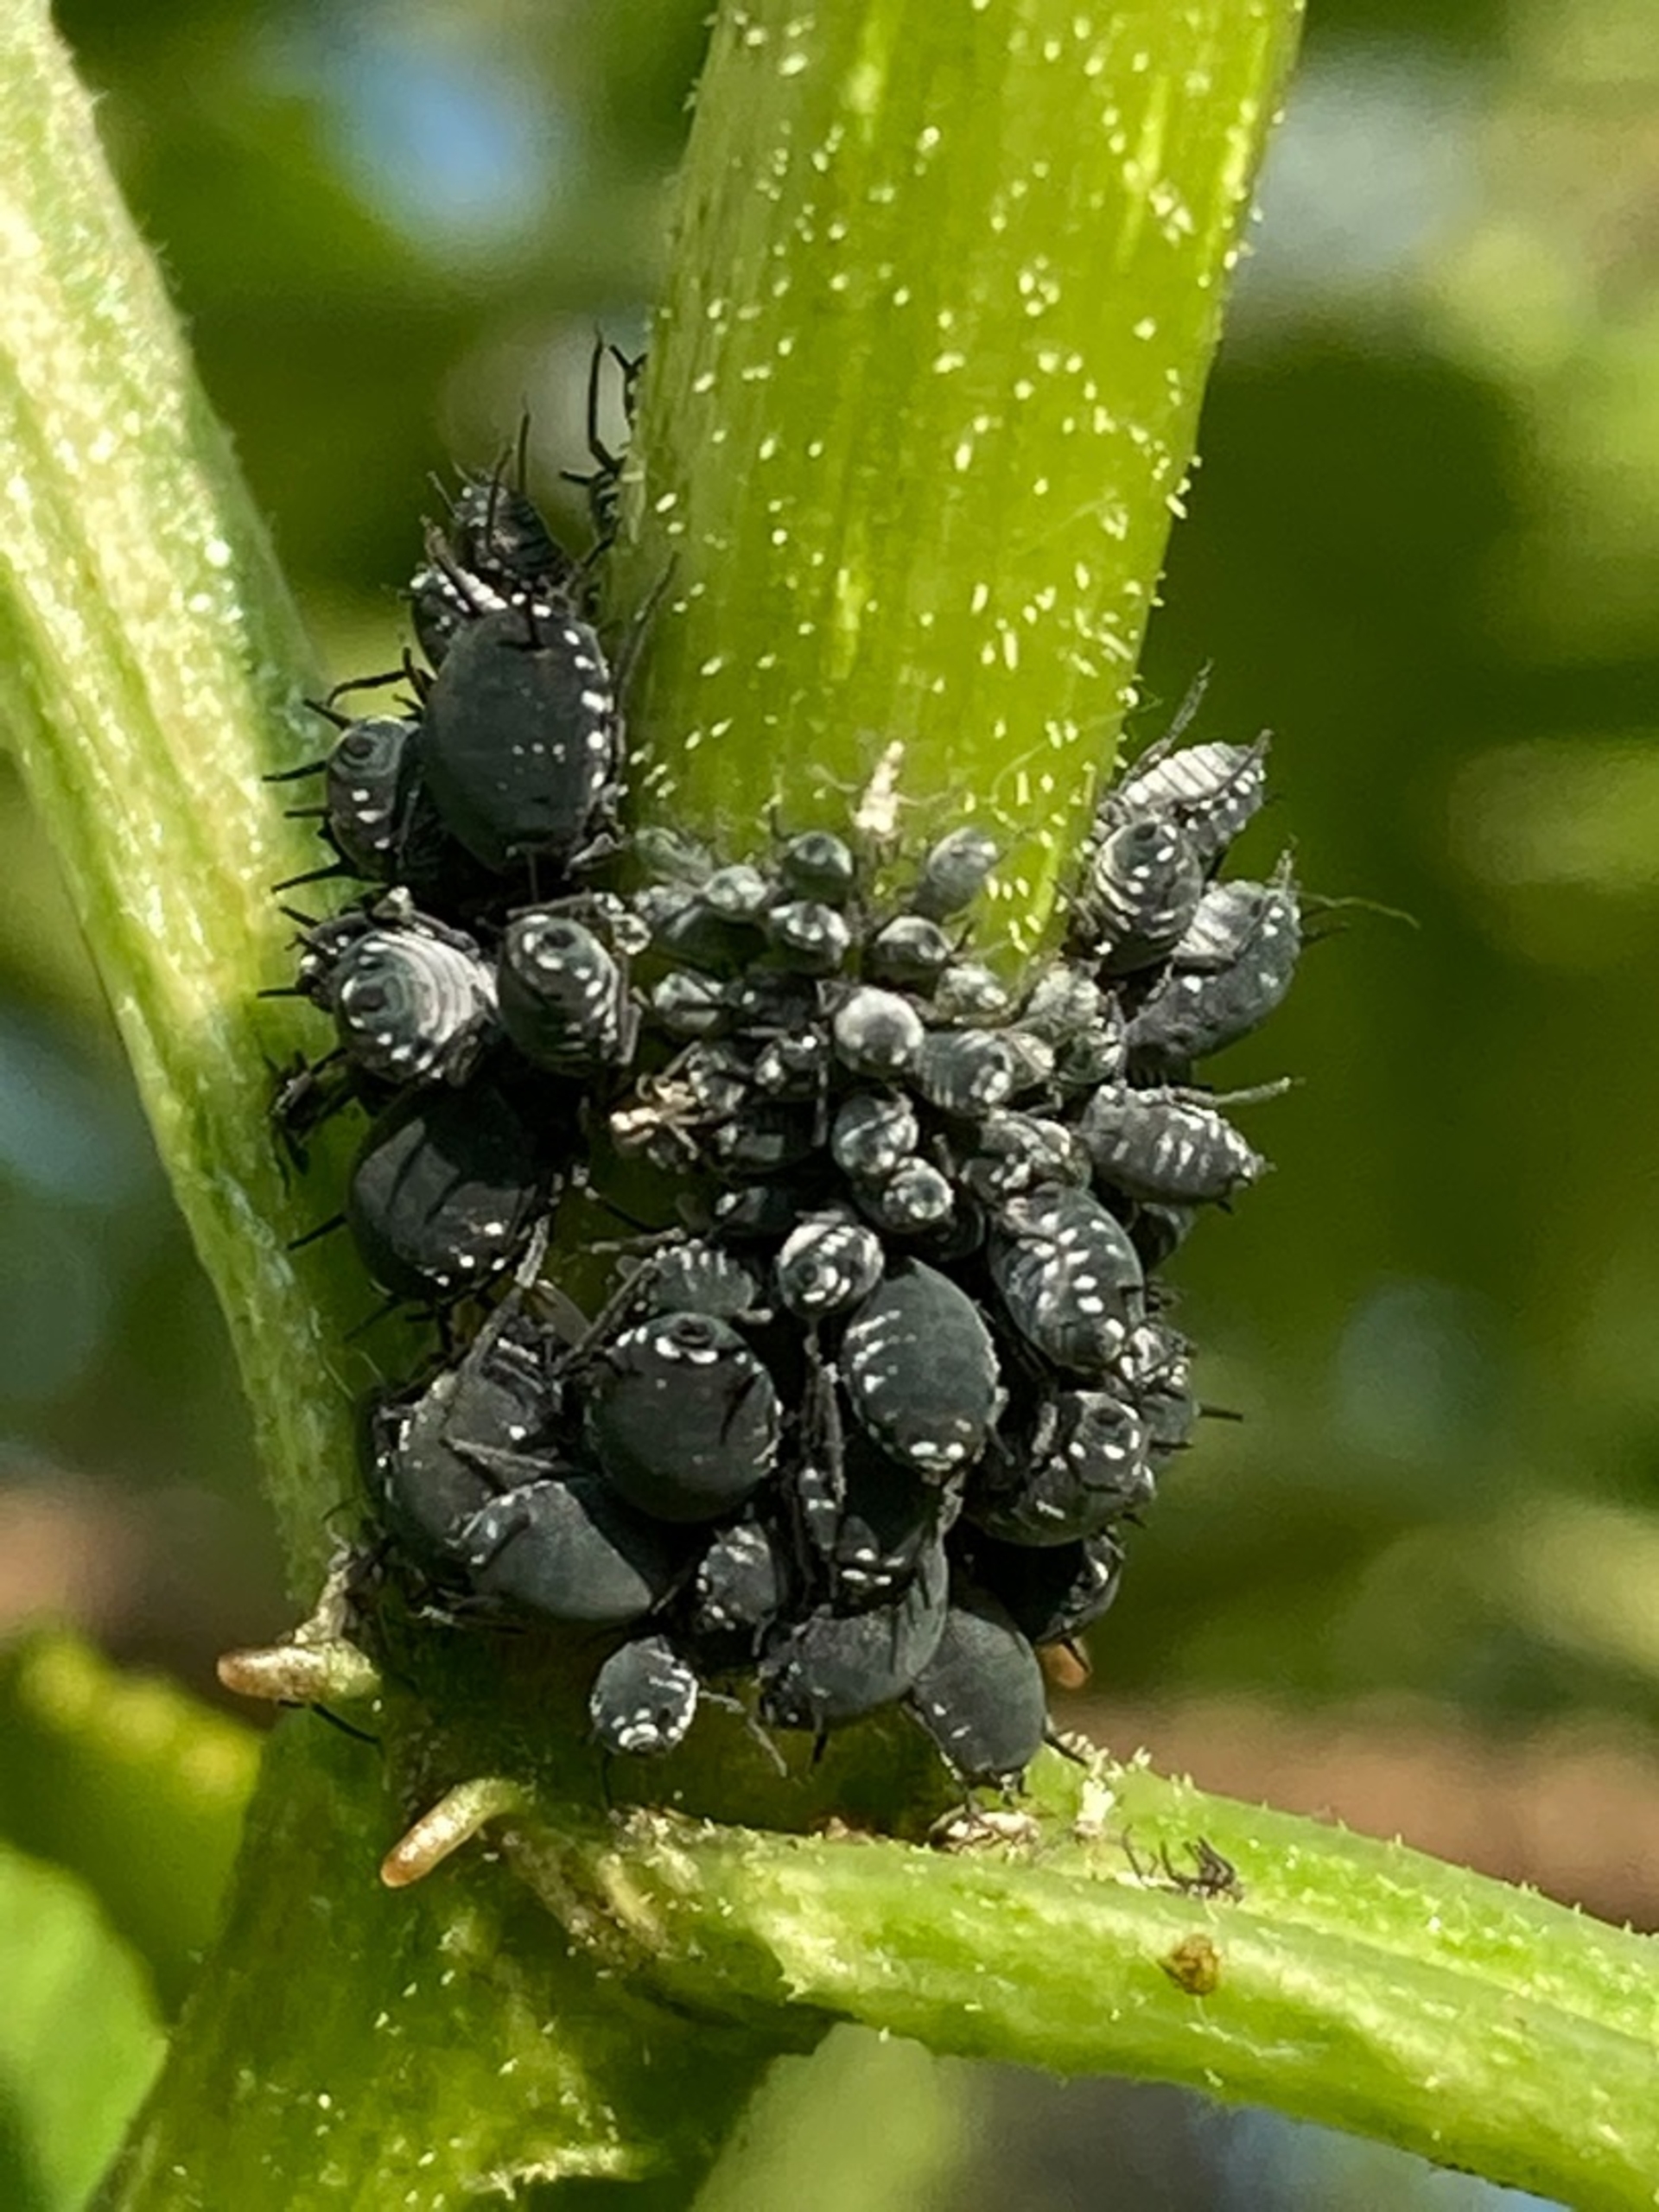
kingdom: Animalia
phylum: Arthropoda
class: Insecta
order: Hemiptera
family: Aphididae
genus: Aphis
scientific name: Aphis sambuci
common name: Hyldebladlus
